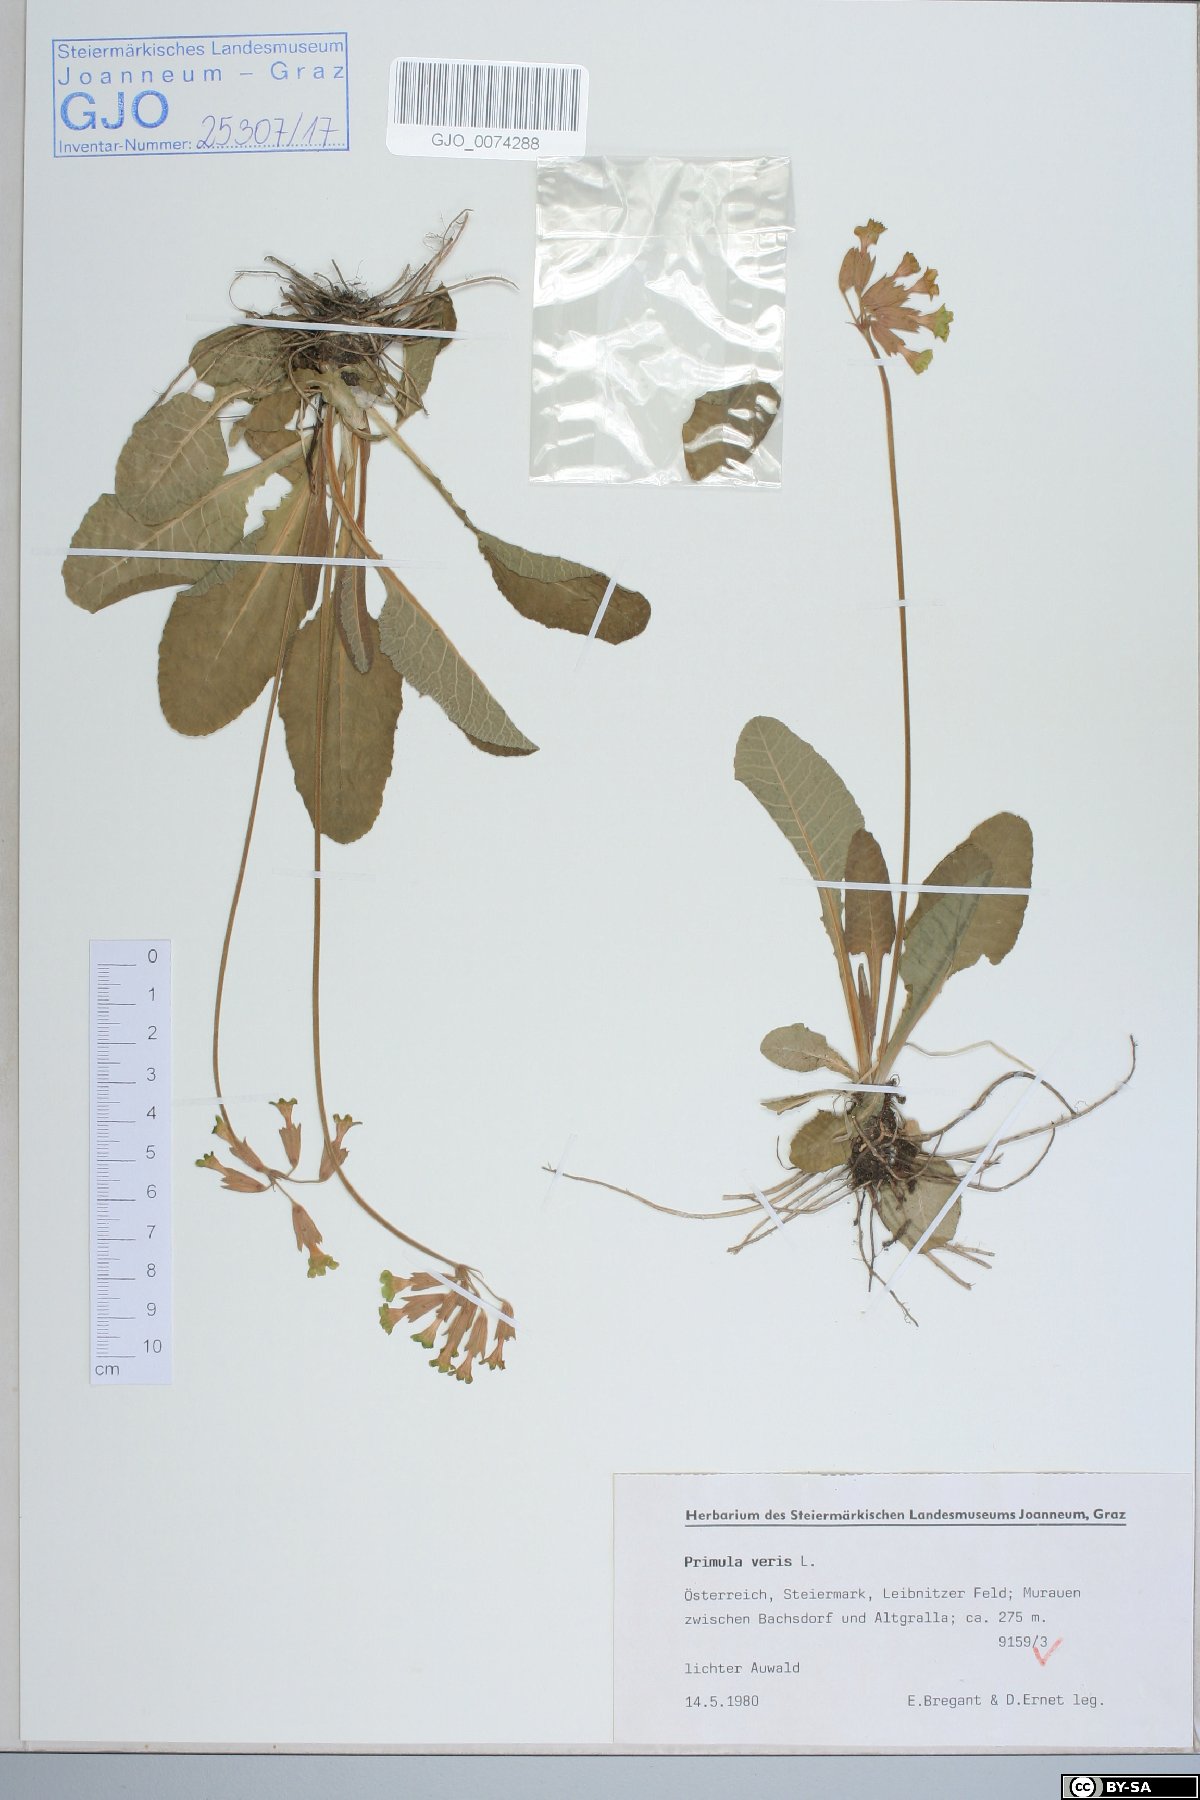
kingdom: Plantae
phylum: Tracheophyta
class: Magnoliopsida
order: Ericales
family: Primulaceae
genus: Primula
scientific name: Primula veris
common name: Cowslip
